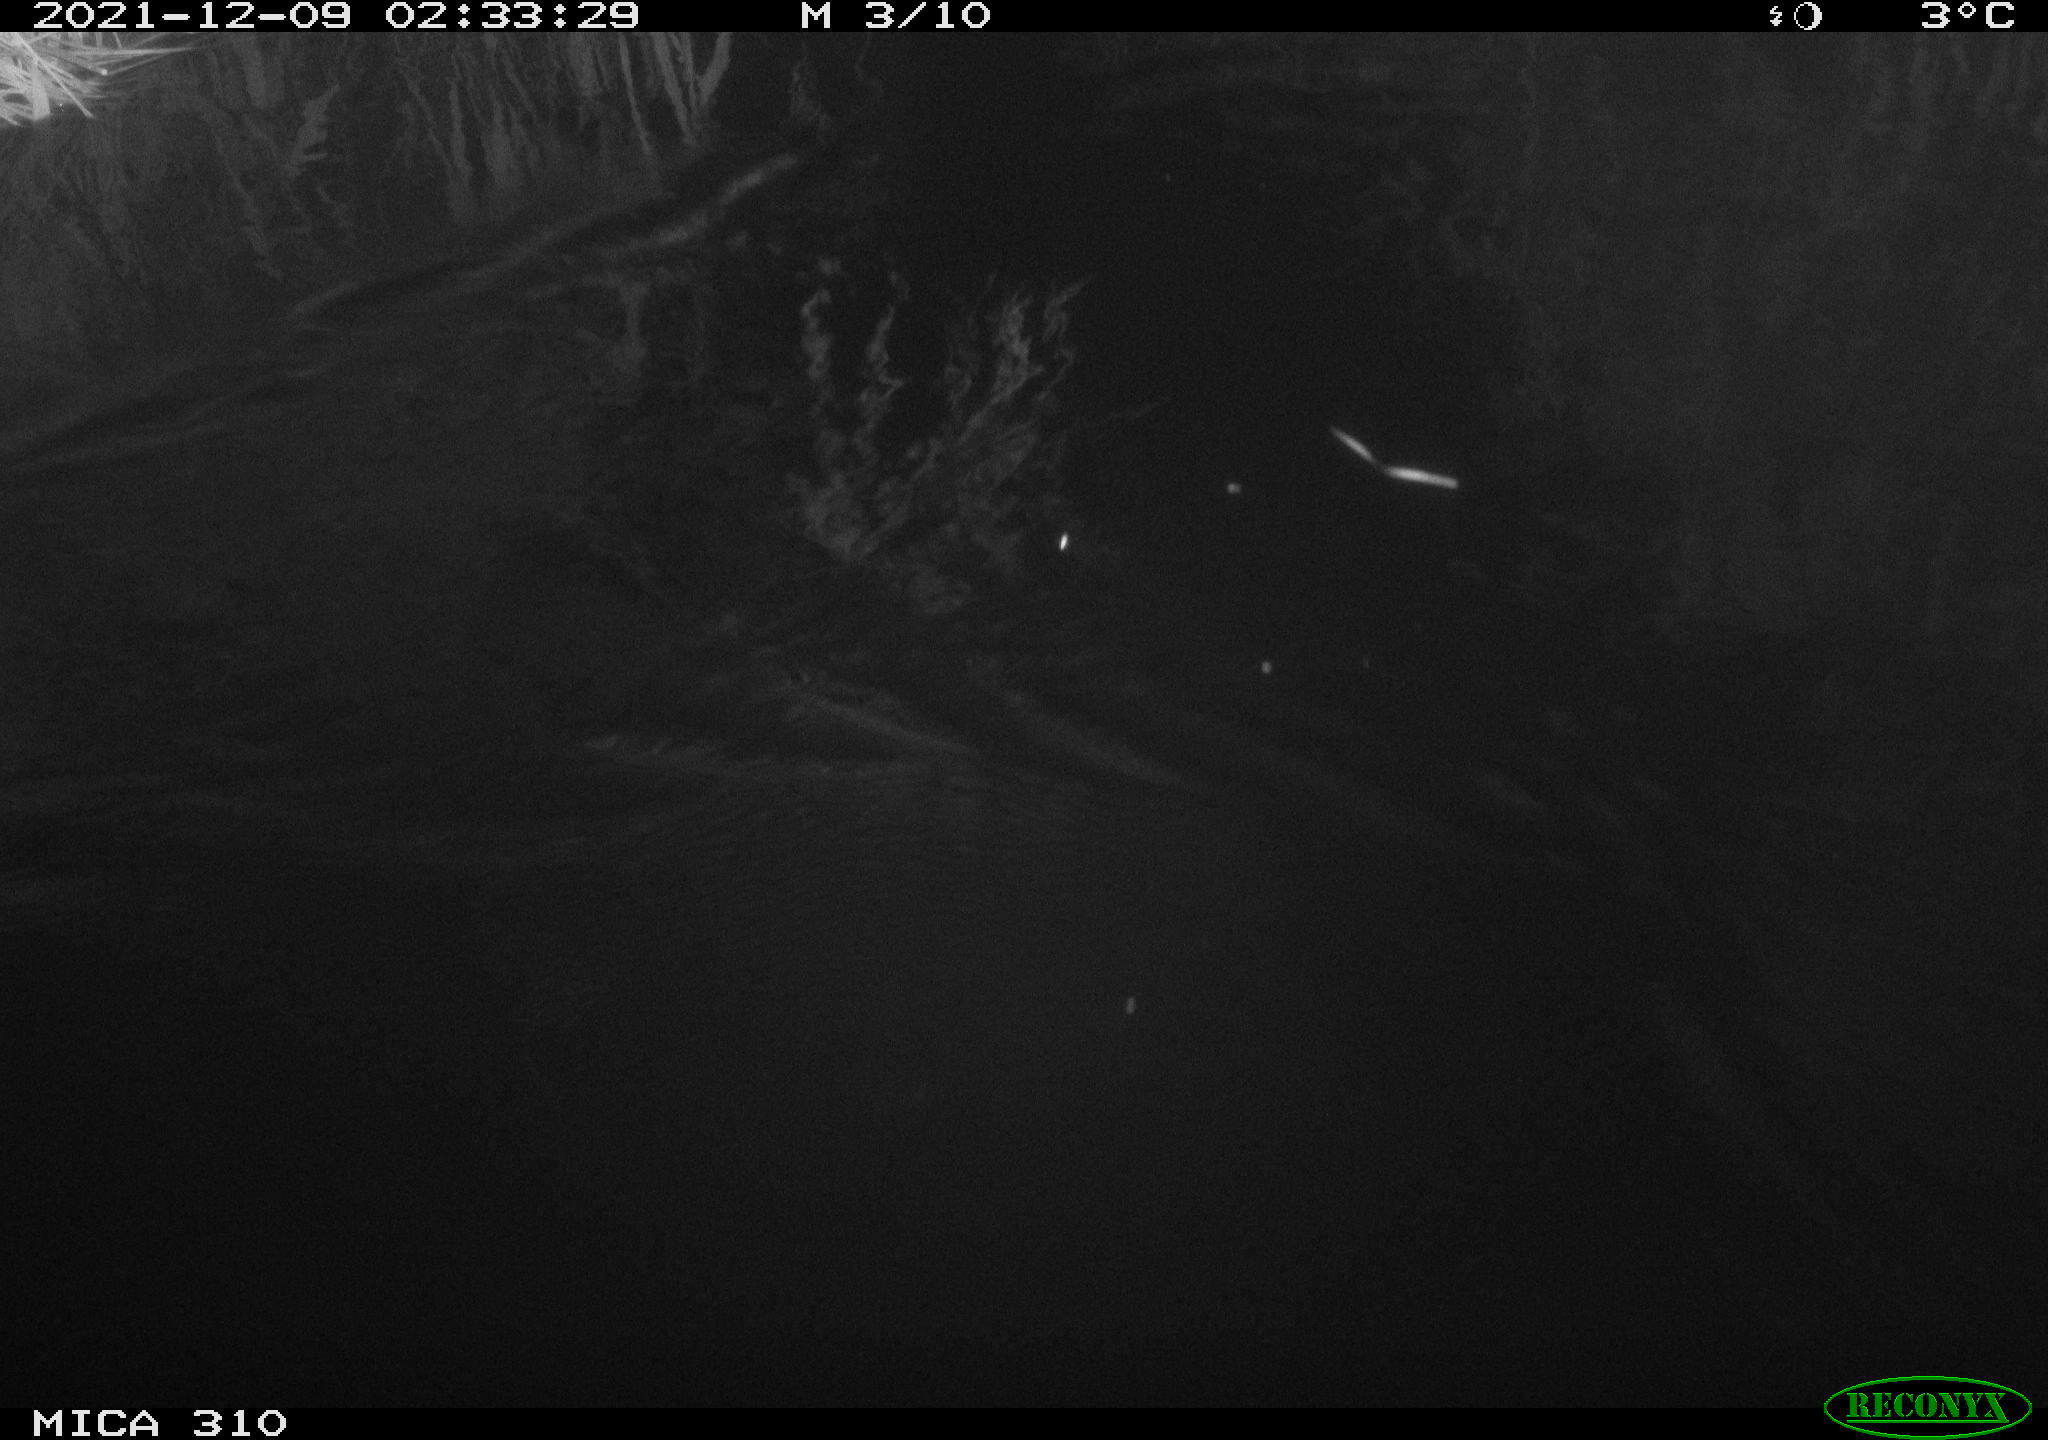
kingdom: Animalia
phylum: Chordata
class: Mammalia
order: Rodentia
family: Cricetidae
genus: Ondatra
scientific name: Ondatra zibethicus
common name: Muskrat
